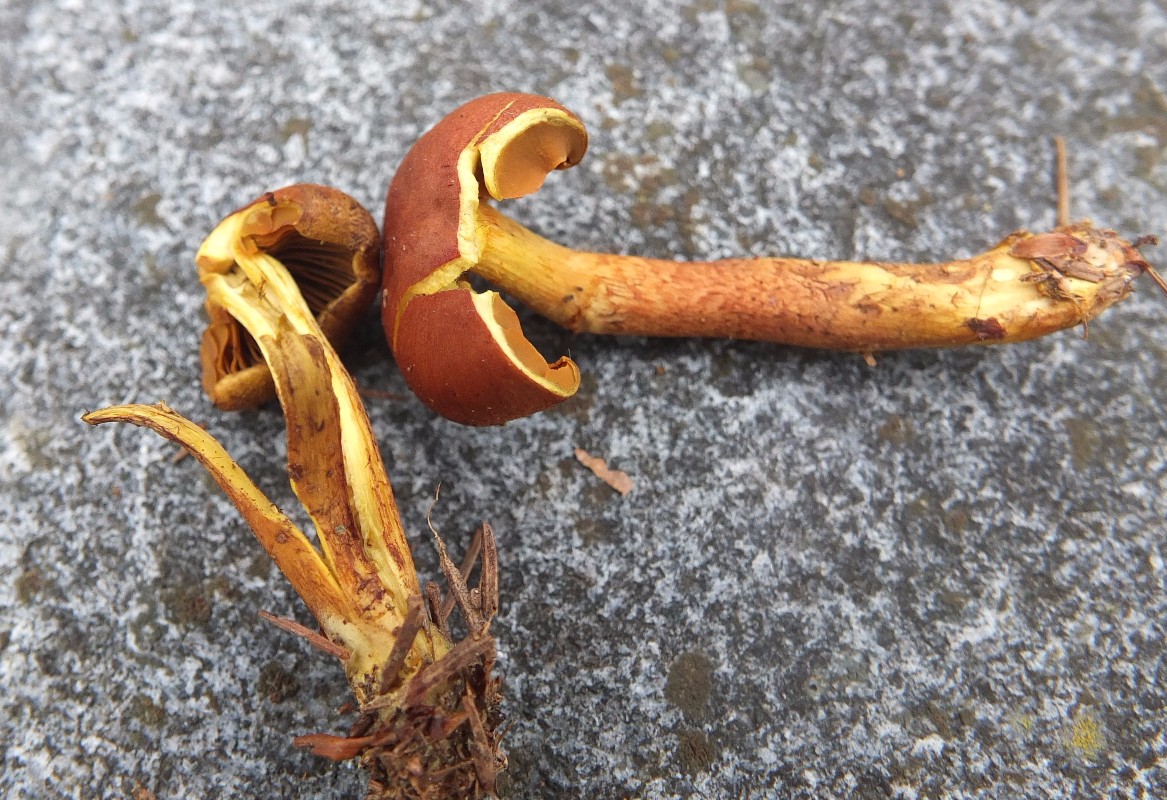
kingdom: Fungi
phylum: Basidiomycota
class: Agaricomycetes
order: Agaricales
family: Cortinariaceae
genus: Cortinarius
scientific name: Cortinarius cinnamomeus
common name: kanel-slørhat
